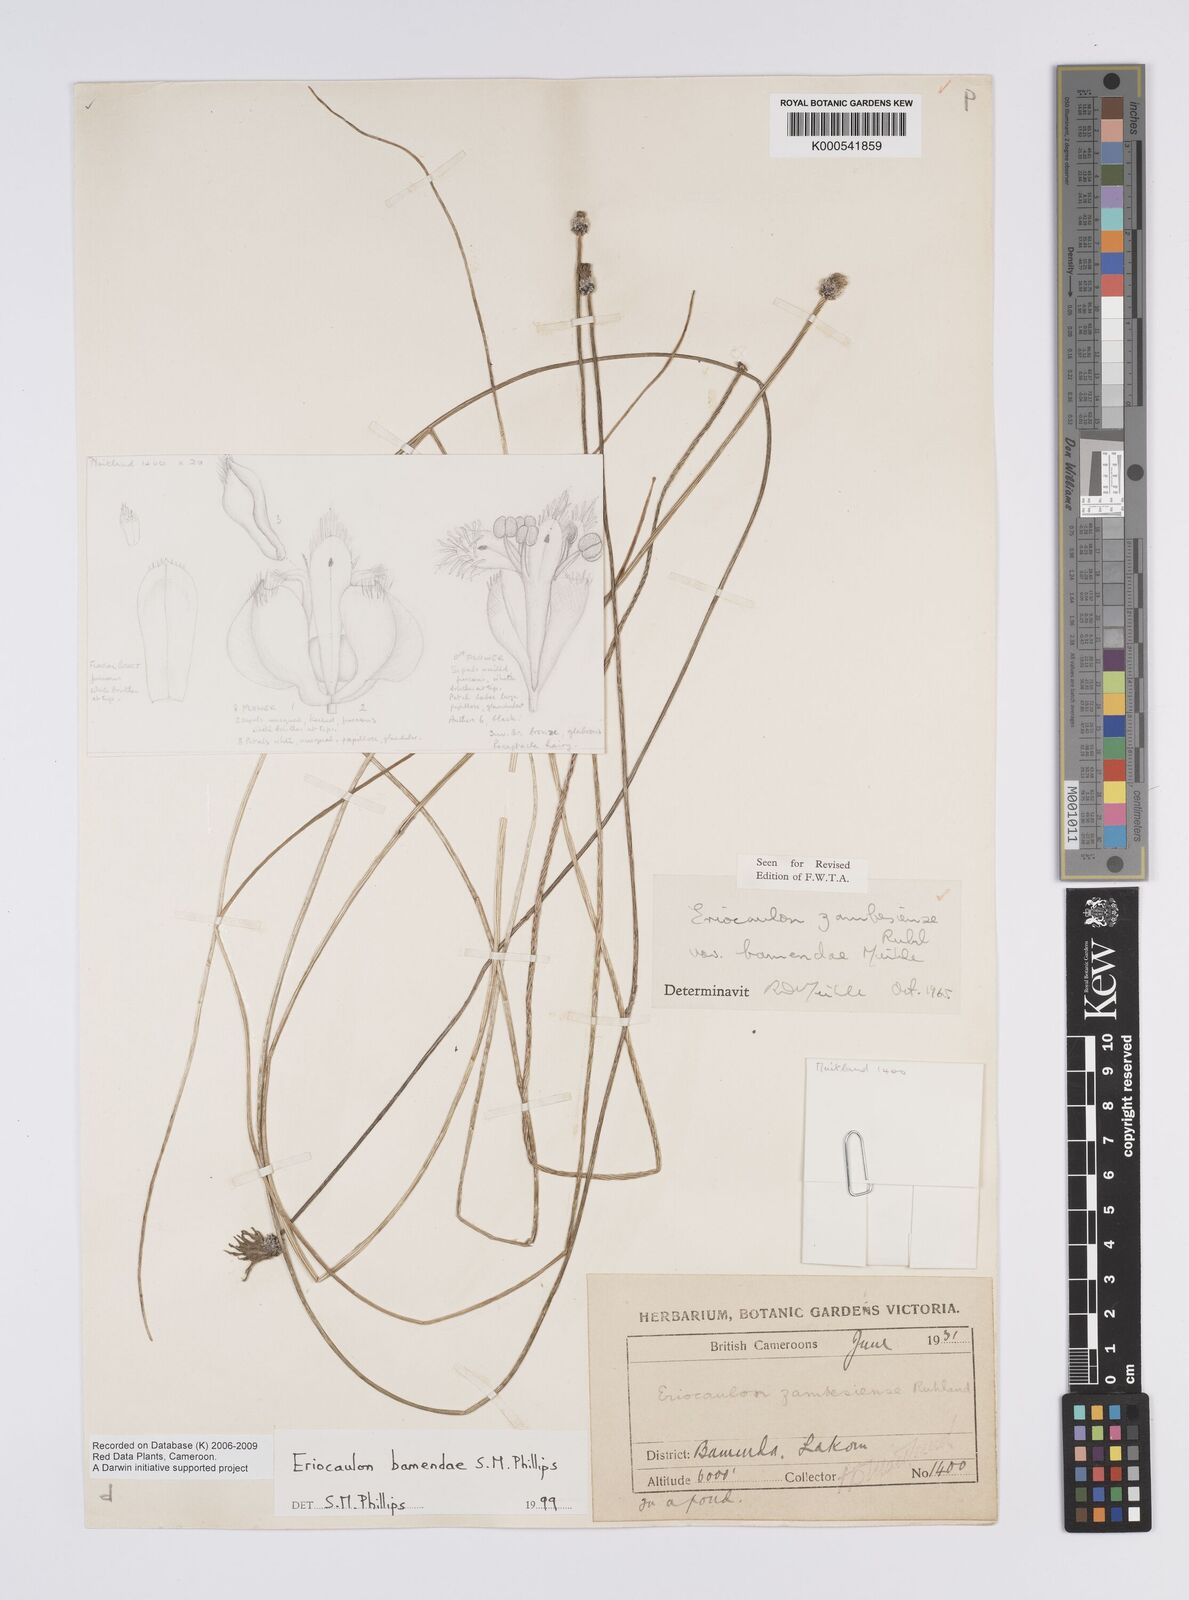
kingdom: Plantae
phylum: Tracheophyta
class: Liliopsida
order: Poales
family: Eriocaulaceae
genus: Eriocaulon
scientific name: Eriocaulon bamendae
